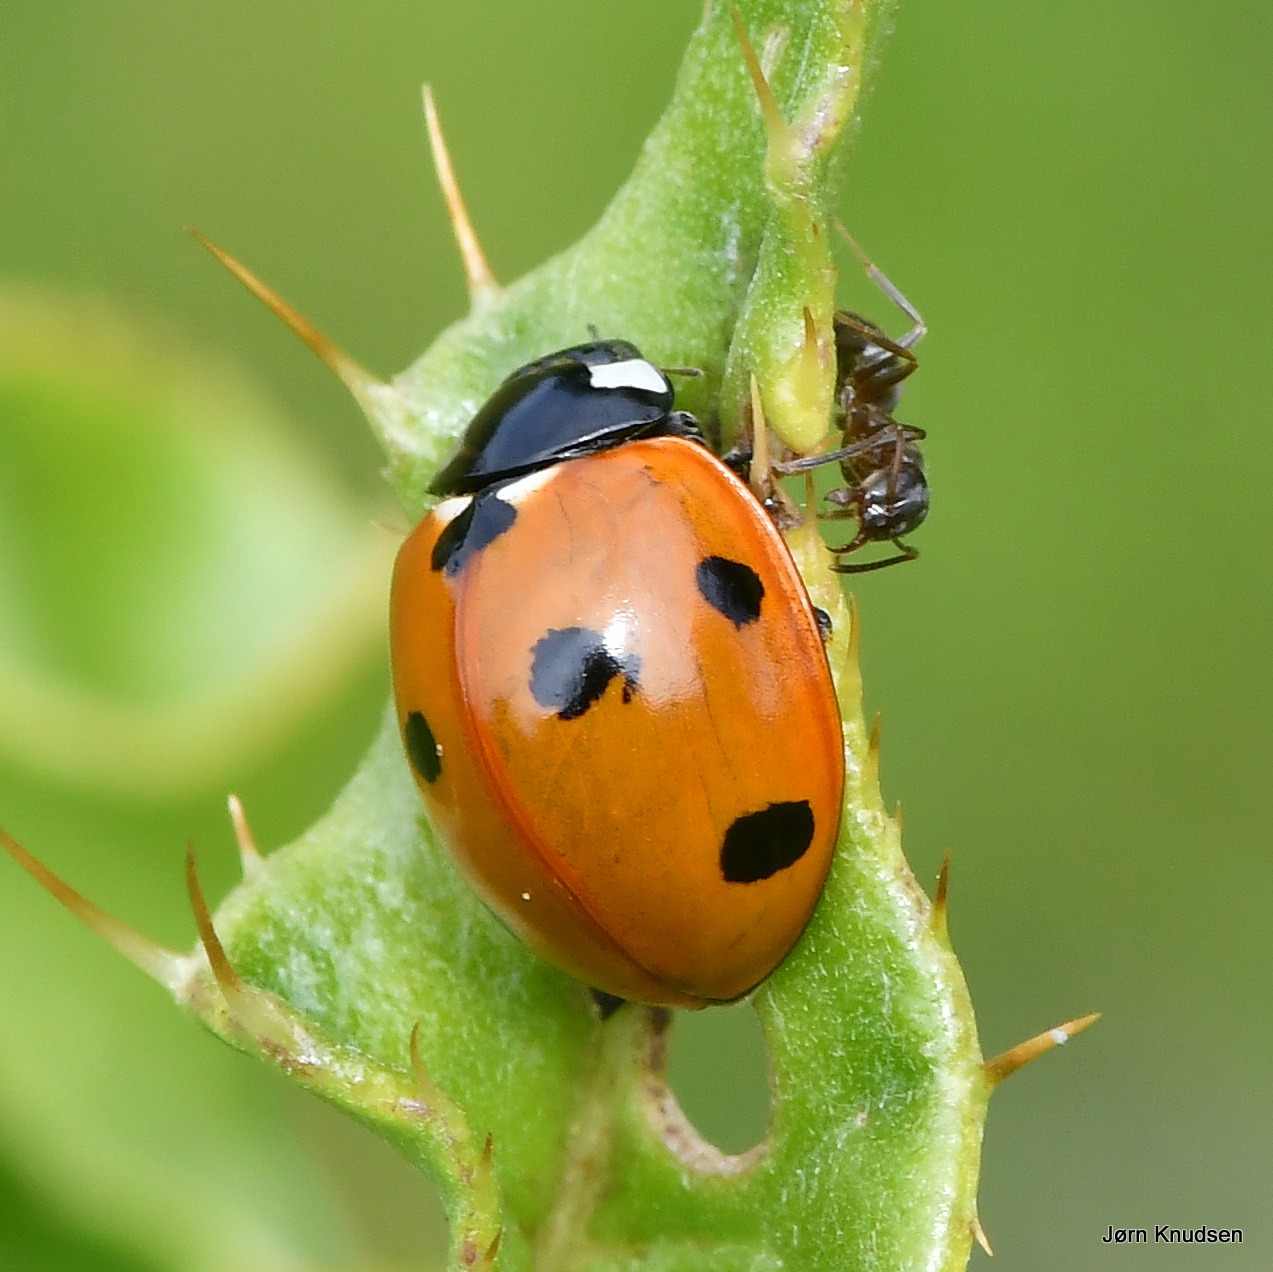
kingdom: Animalia
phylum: Arthropoda
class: Insecta
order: Coleoptera
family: Coccinellidae
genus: Coccinella
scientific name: Coccinella septempunctata
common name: Syvplettet mariehøne
